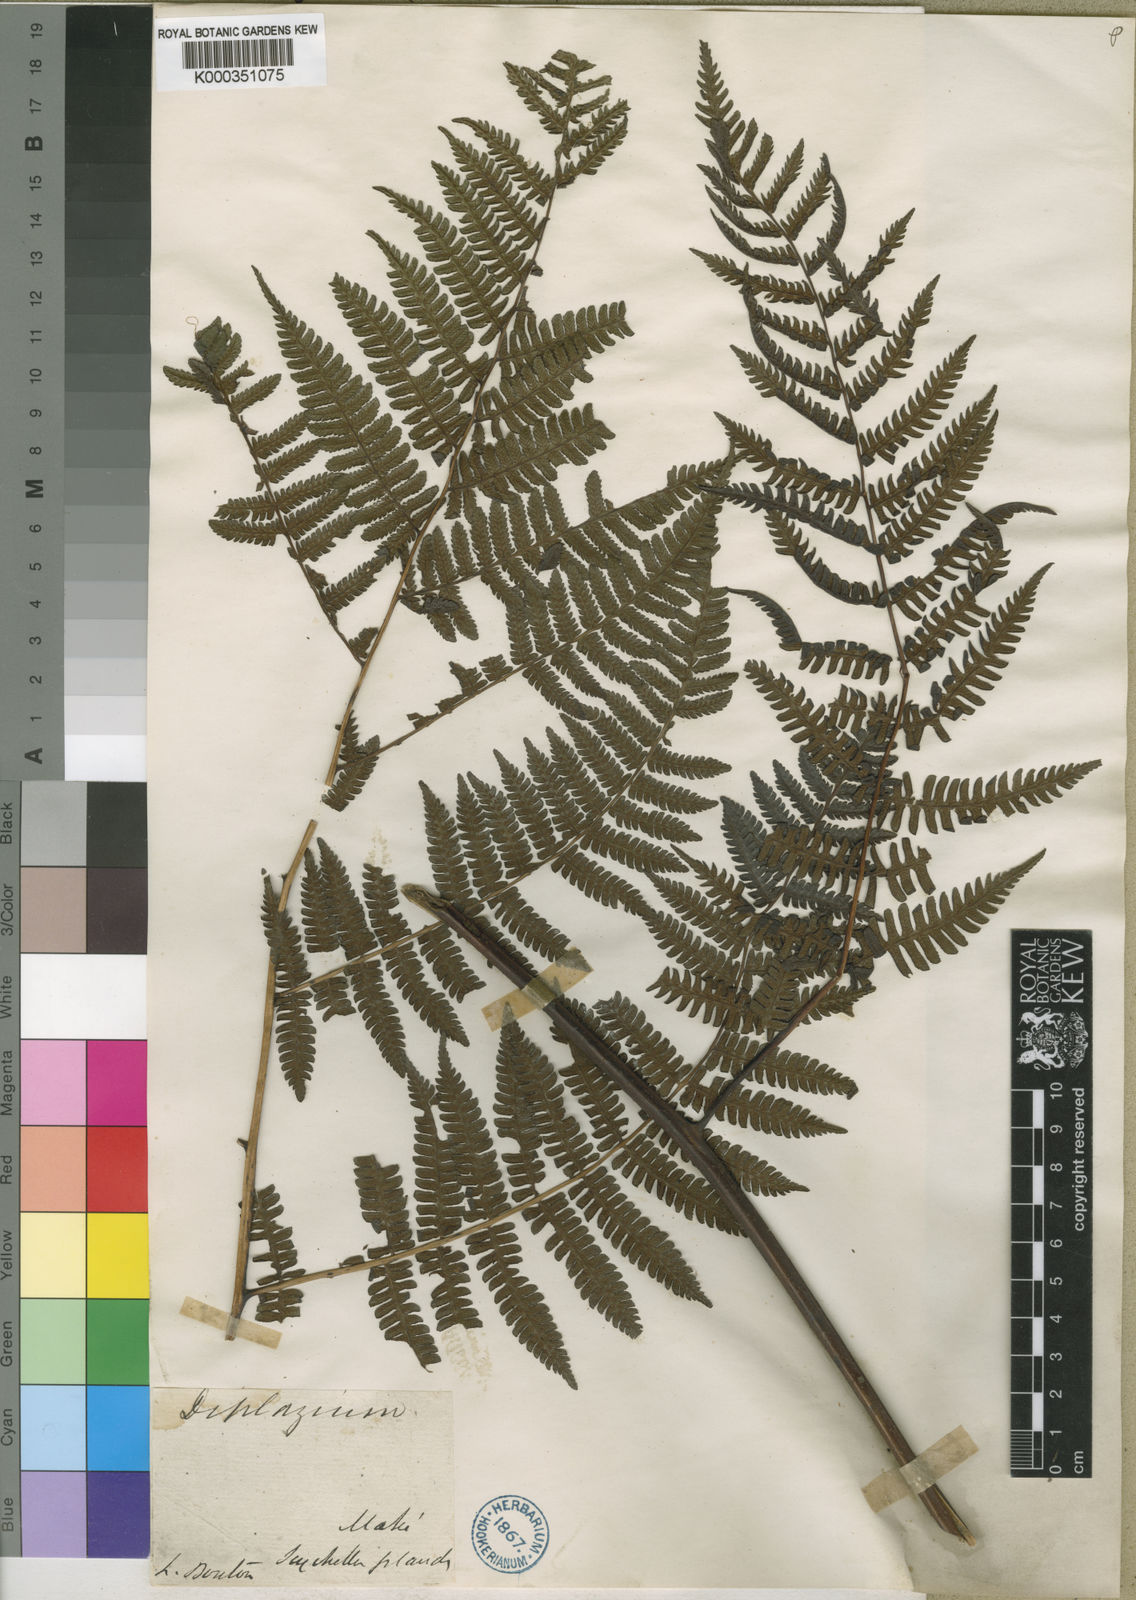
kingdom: Plantae
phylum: Tracheophyta
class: Polypodiopsida
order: Polypodiales
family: Athyriaceae
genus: Diplazium
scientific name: Diplazium polypodioides
